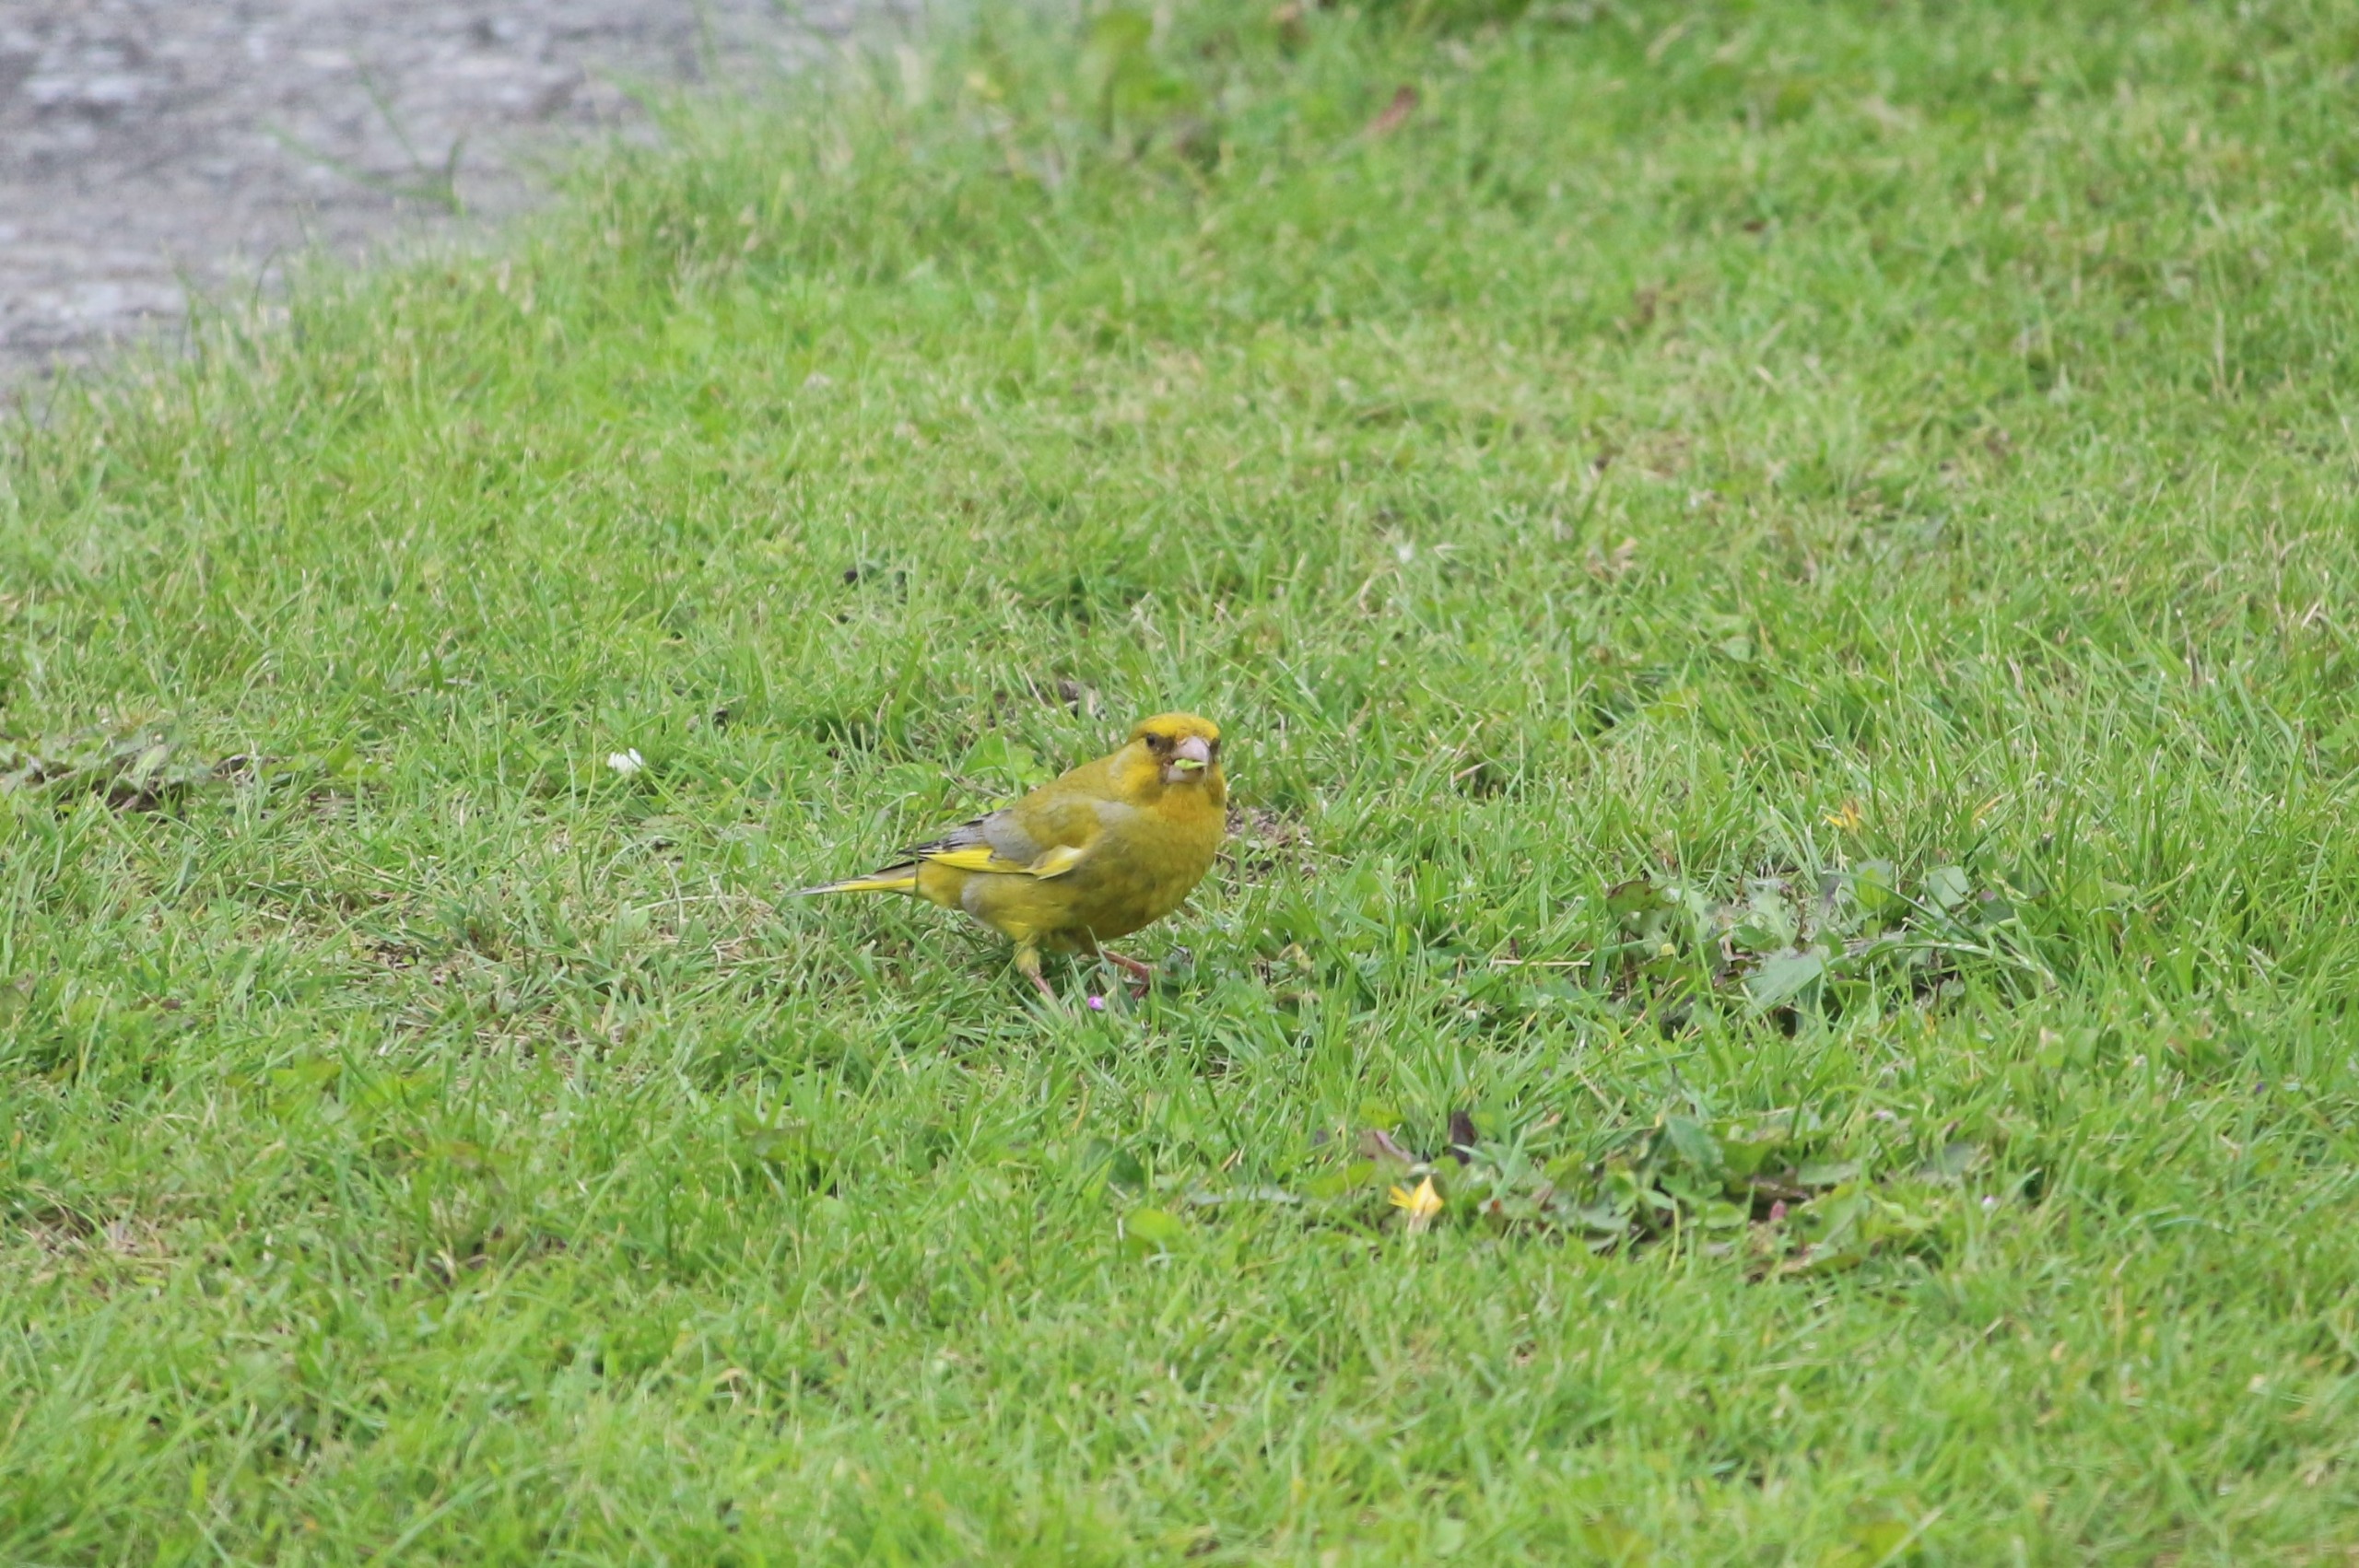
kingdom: Plantae
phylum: Tracheophyta
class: Liliopsida
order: Poales
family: Poaceae
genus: Chloris
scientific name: Chloris chloris
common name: Grønirisk
